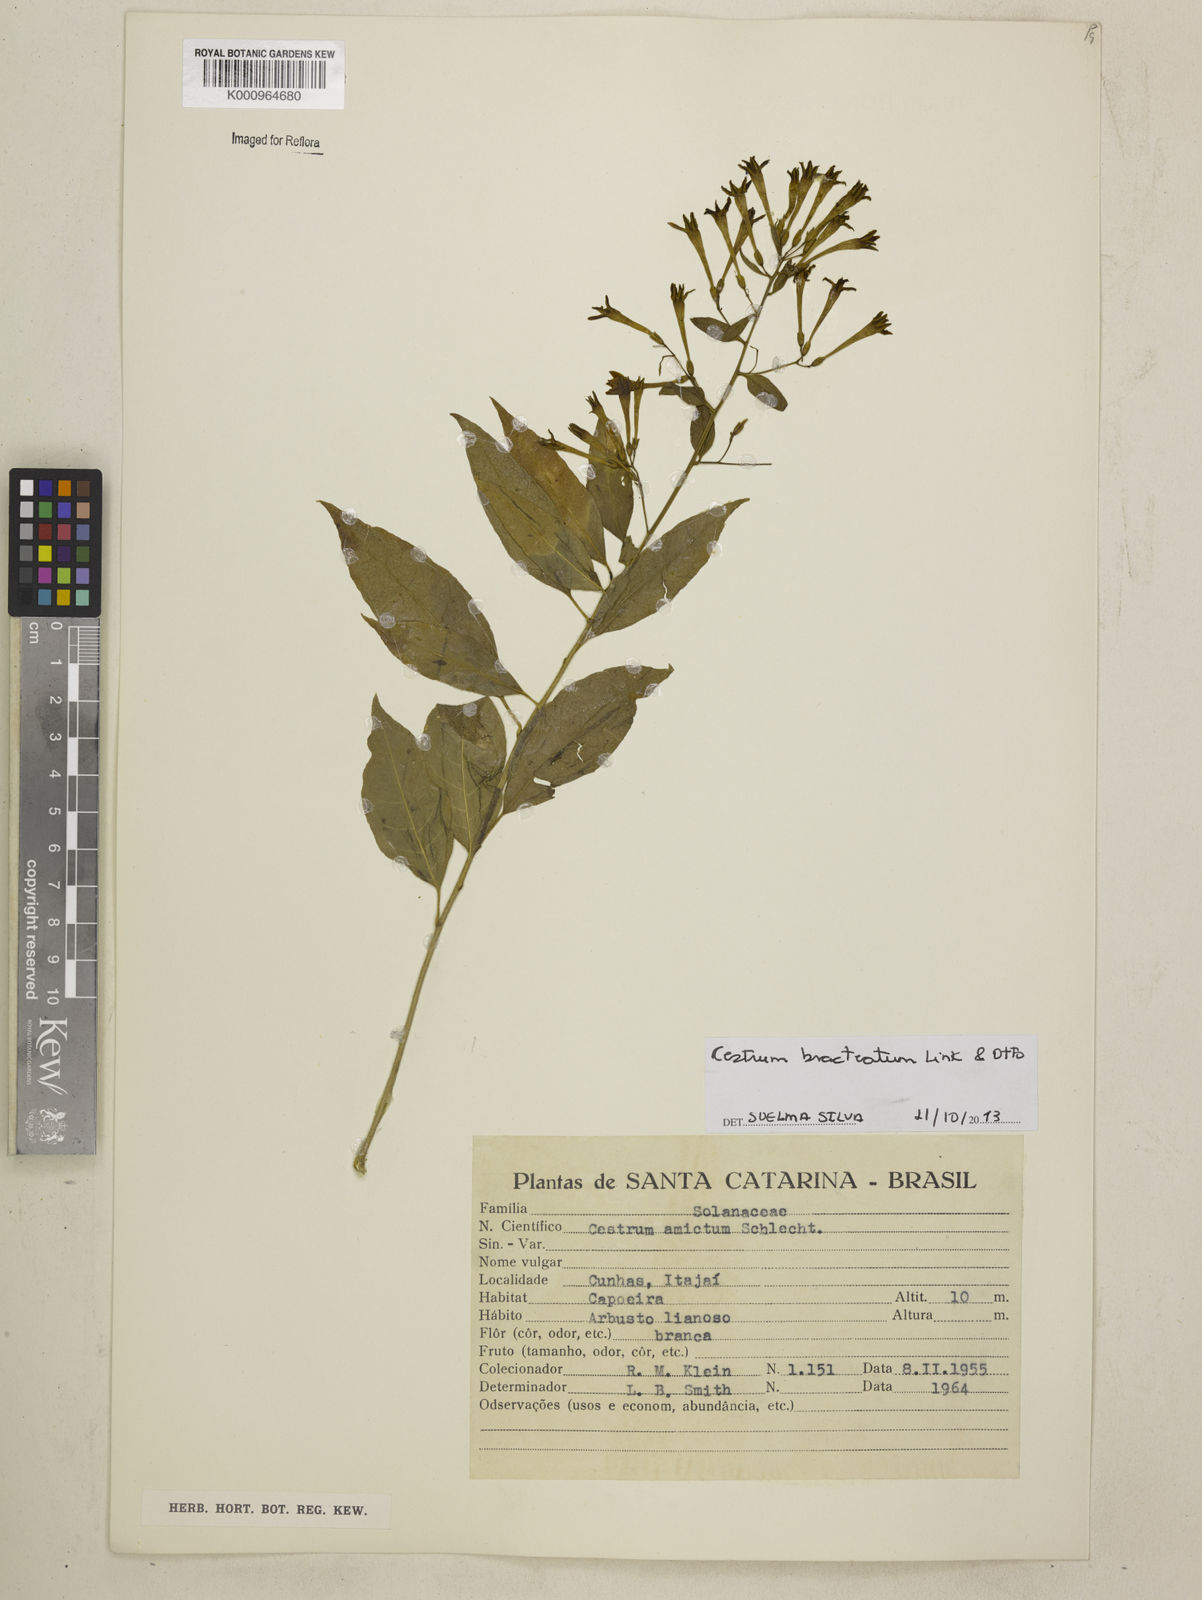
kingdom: Plantae
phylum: Tracheophyta
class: Magnoliopsida
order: Solanales
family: Solanaceae
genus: Cestrum
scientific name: Cestrum bracteatum
